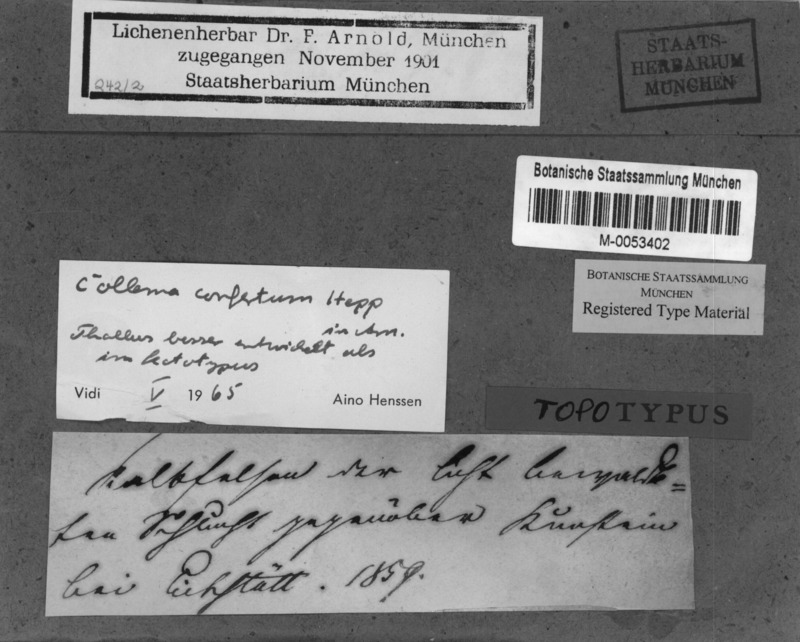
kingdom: Fungi
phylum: Ascomycota
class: Lecanoromycetes
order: Peltigerales
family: Collemataceae
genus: Enchylium
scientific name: Enchylium confertum
